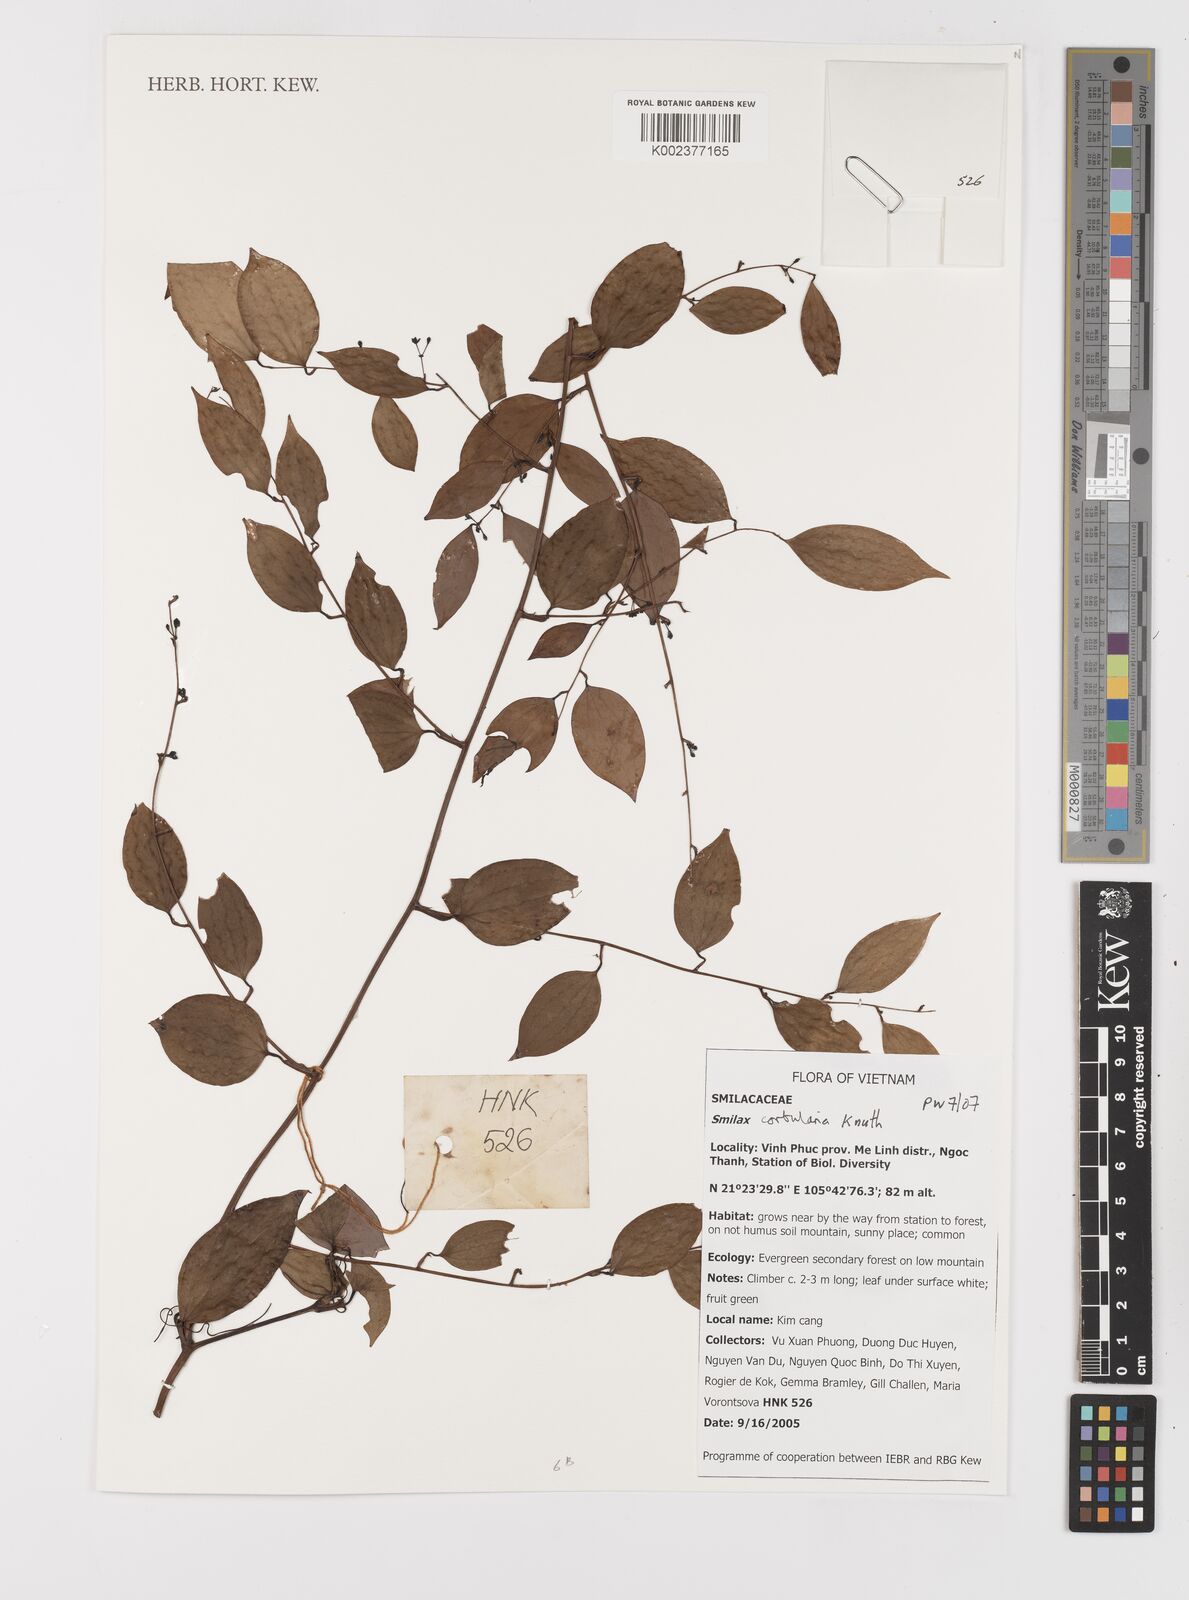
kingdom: Plantae
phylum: Tracheophyta
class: Liliopsida
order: Liliales
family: Smilacaceae
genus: Smilax
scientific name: Smilax corbularia
